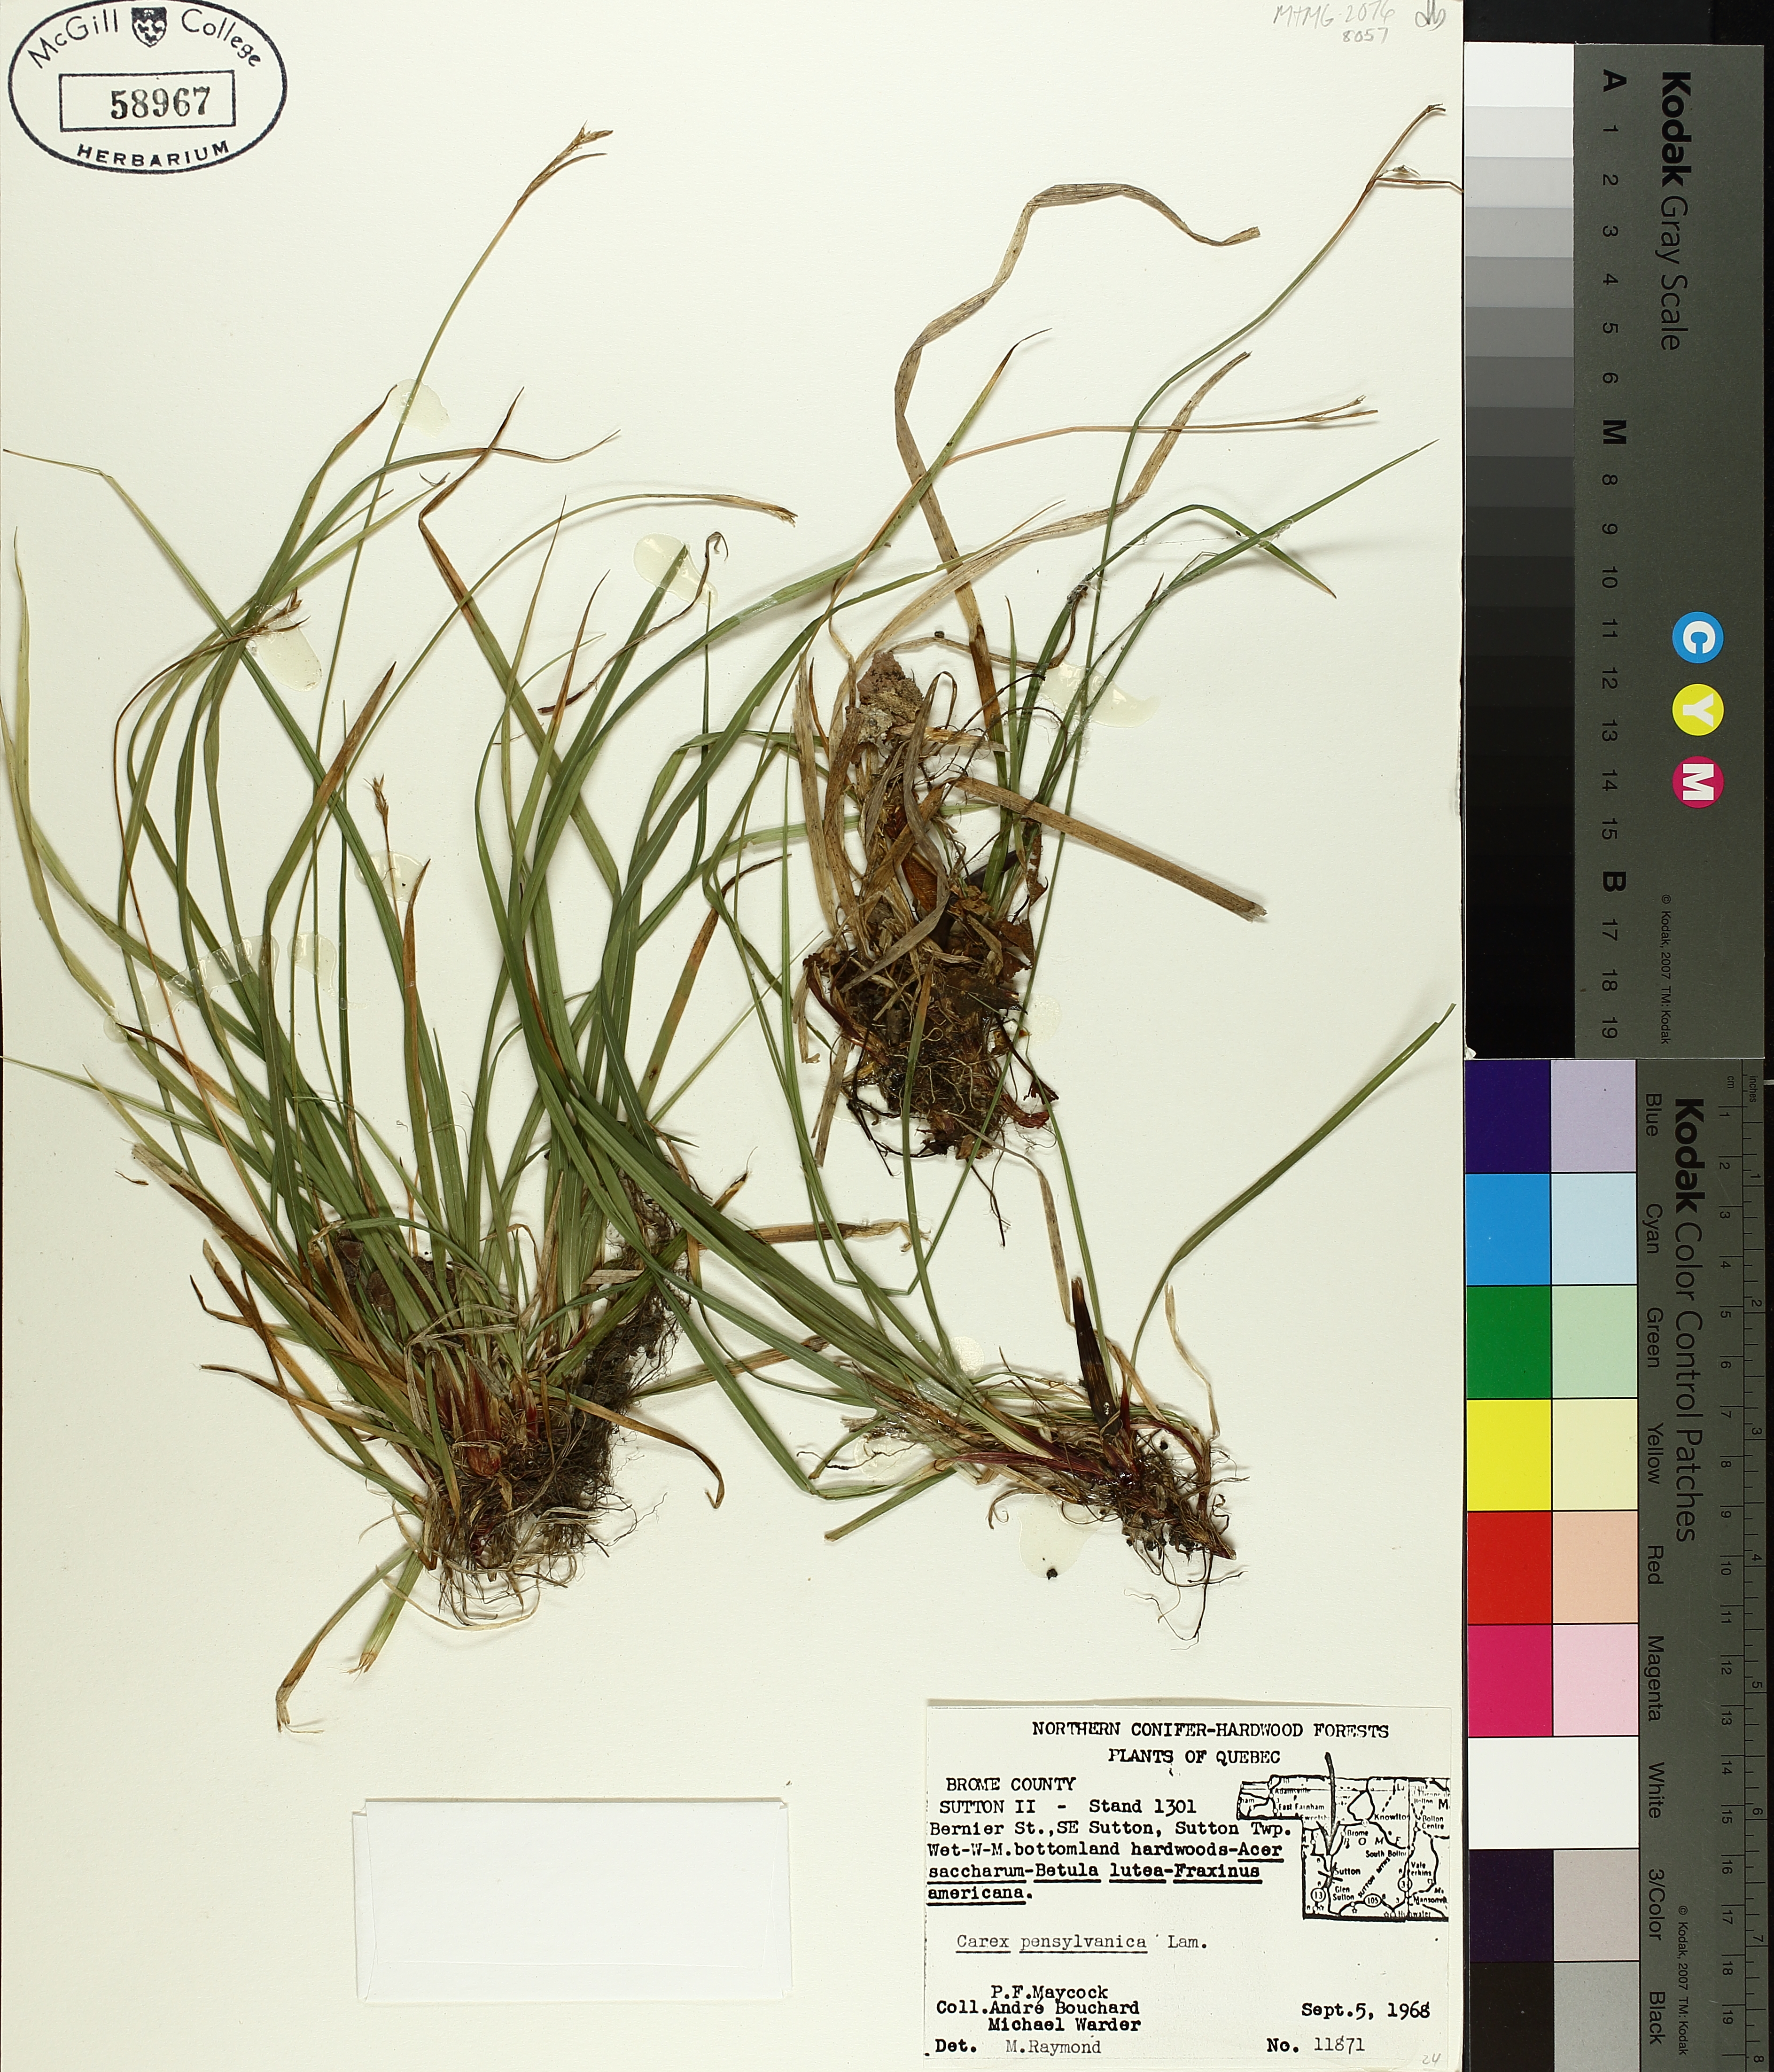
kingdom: Plantae
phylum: Tracheophyta
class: Liliopsida
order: Poales
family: Cyperaceae
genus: Carex
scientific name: Carex pensylvanica
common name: Common oak sedge
